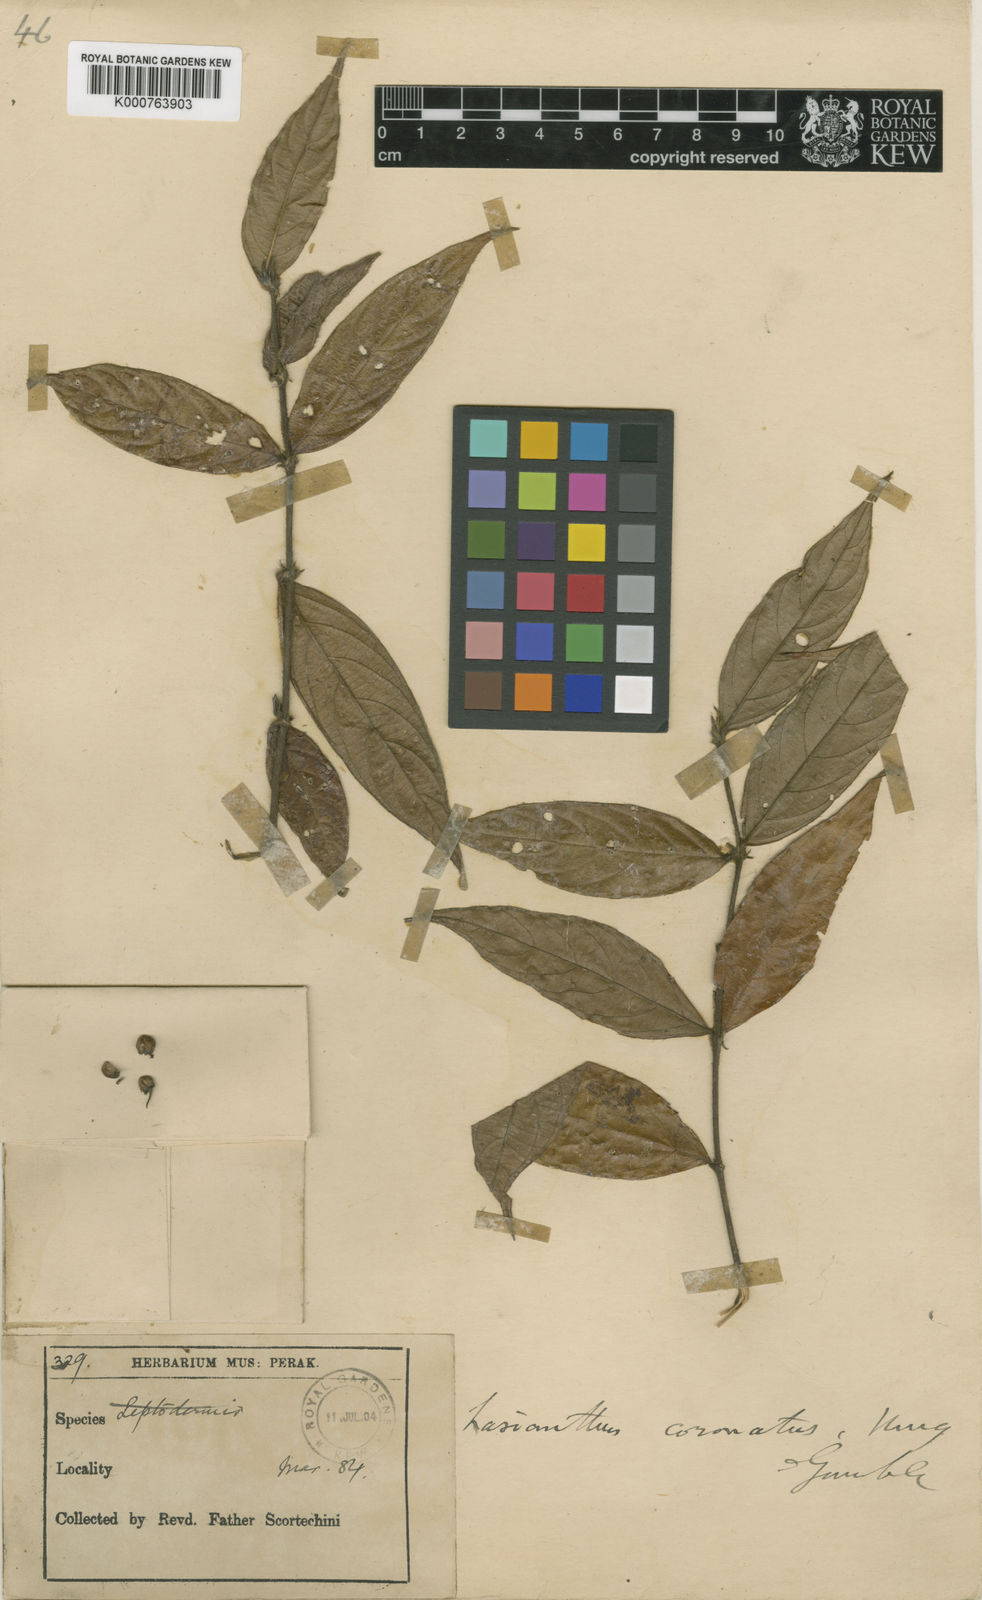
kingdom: Plantae
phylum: Tracheophyta
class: Magnoliopsida
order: Gentianales
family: Rubiaceae
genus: Lasianthus
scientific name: Lasianthus montanus
